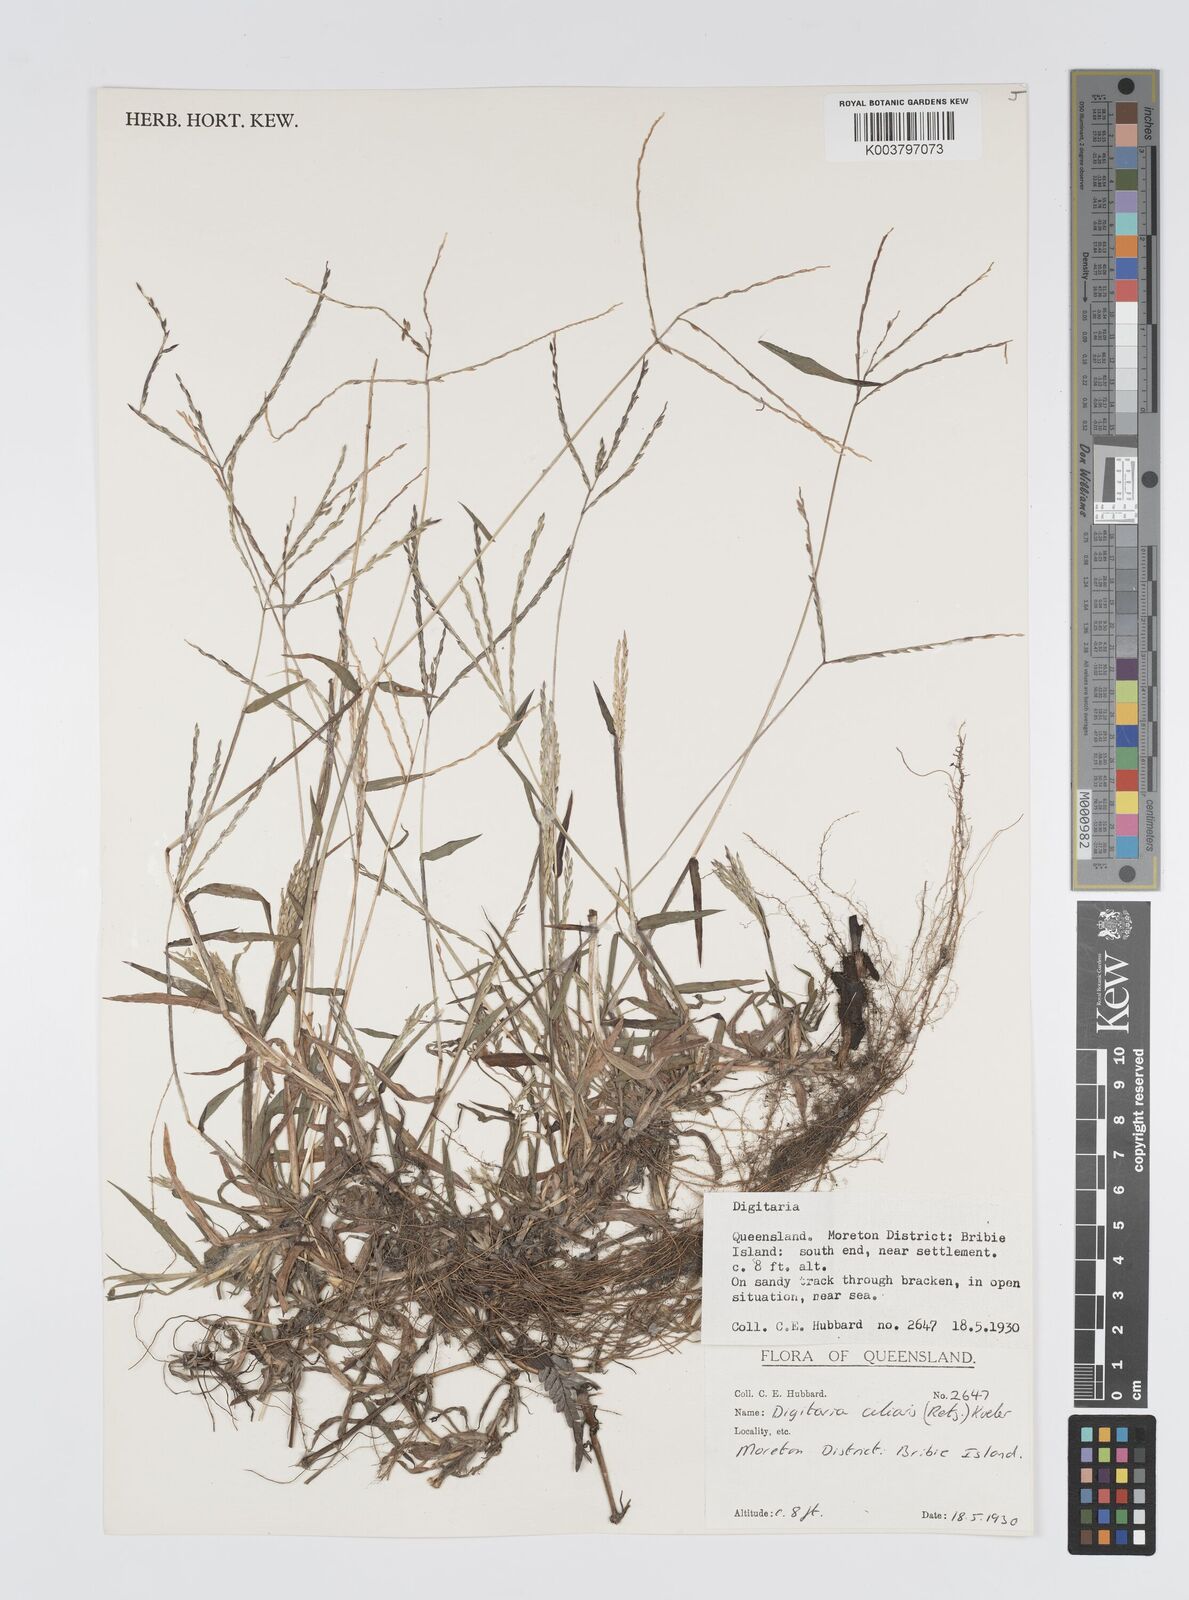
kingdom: Plantae
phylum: Tracheophyta
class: Liliopsida
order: Poales
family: Poaceae
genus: Digitaria
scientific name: Digitaria ciliaris
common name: Tropical finger-grass
